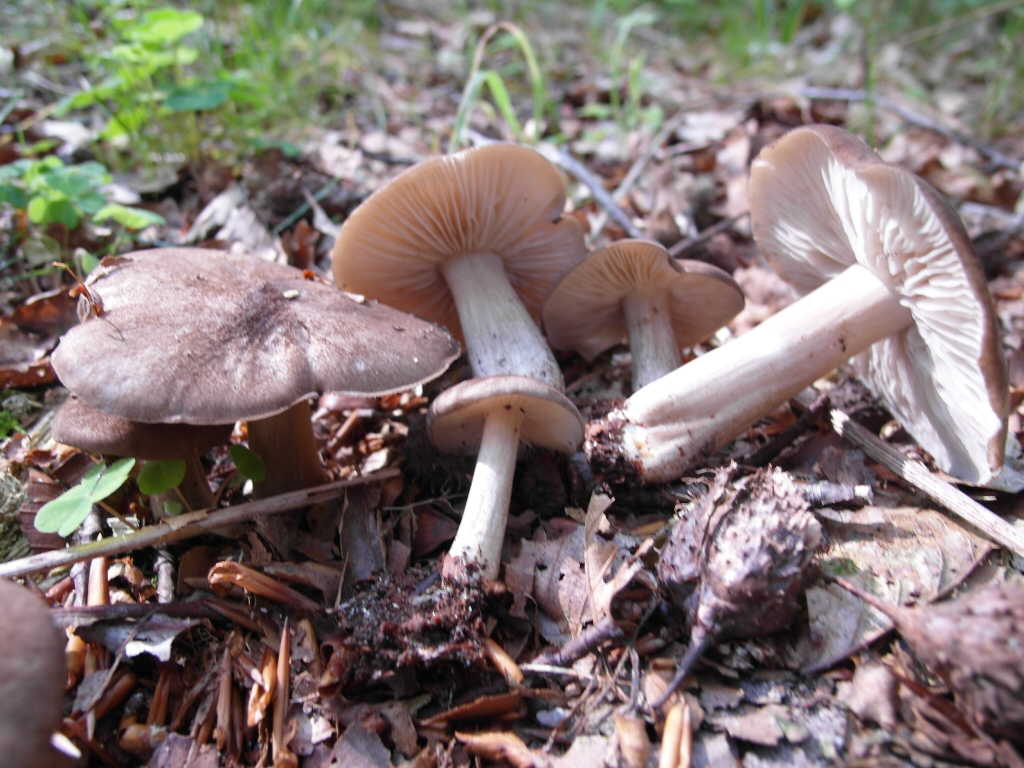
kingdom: Fungi
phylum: Basidiomycota
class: Agaricomycetes
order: Agaricales
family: Tricholomataceae
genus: Megacollybia
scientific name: Megacollybia platyphylla
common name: bredbladet væbnerhat
